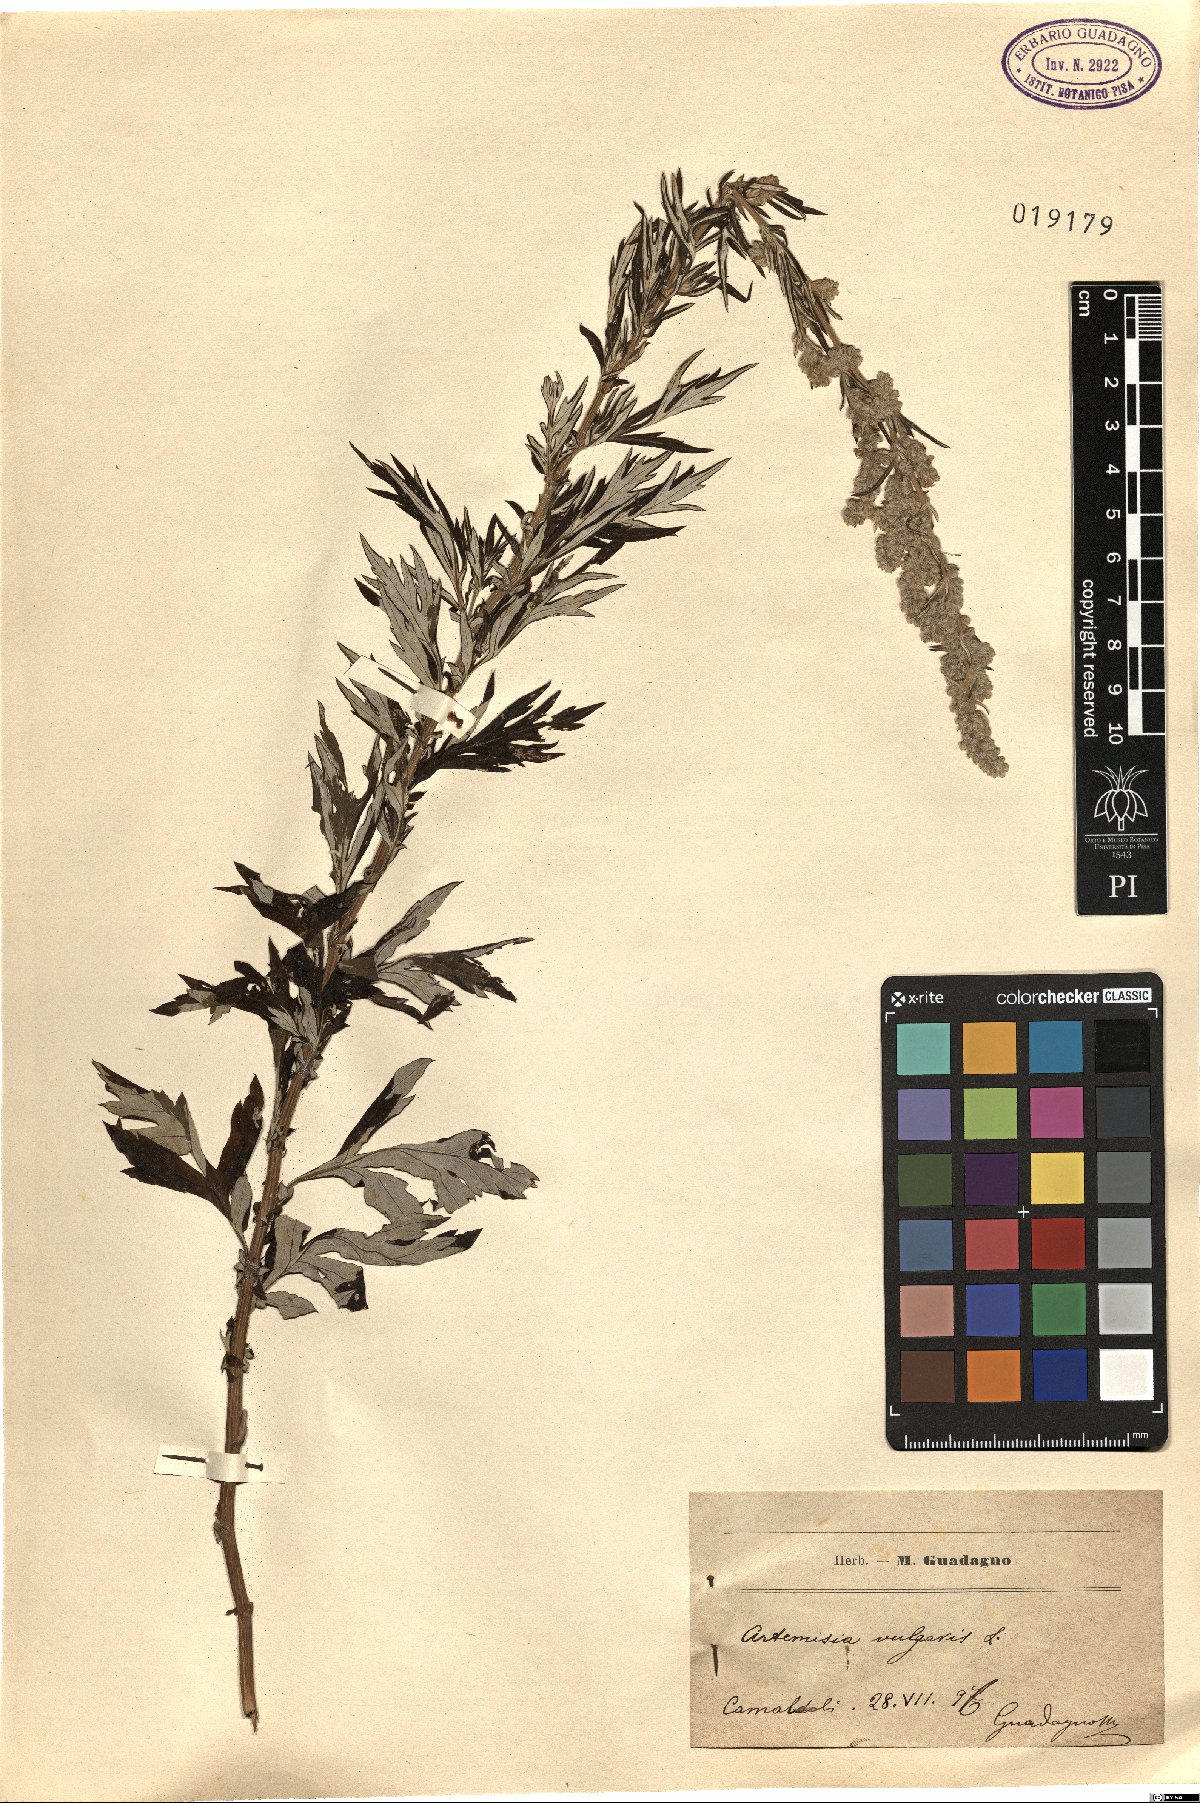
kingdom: Plantae
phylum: Tracheophyta
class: Magnoliopsida
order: Asterales
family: Asteraceae
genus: Artemisia
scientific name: Artemisia vulgaris
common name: Mugwort
